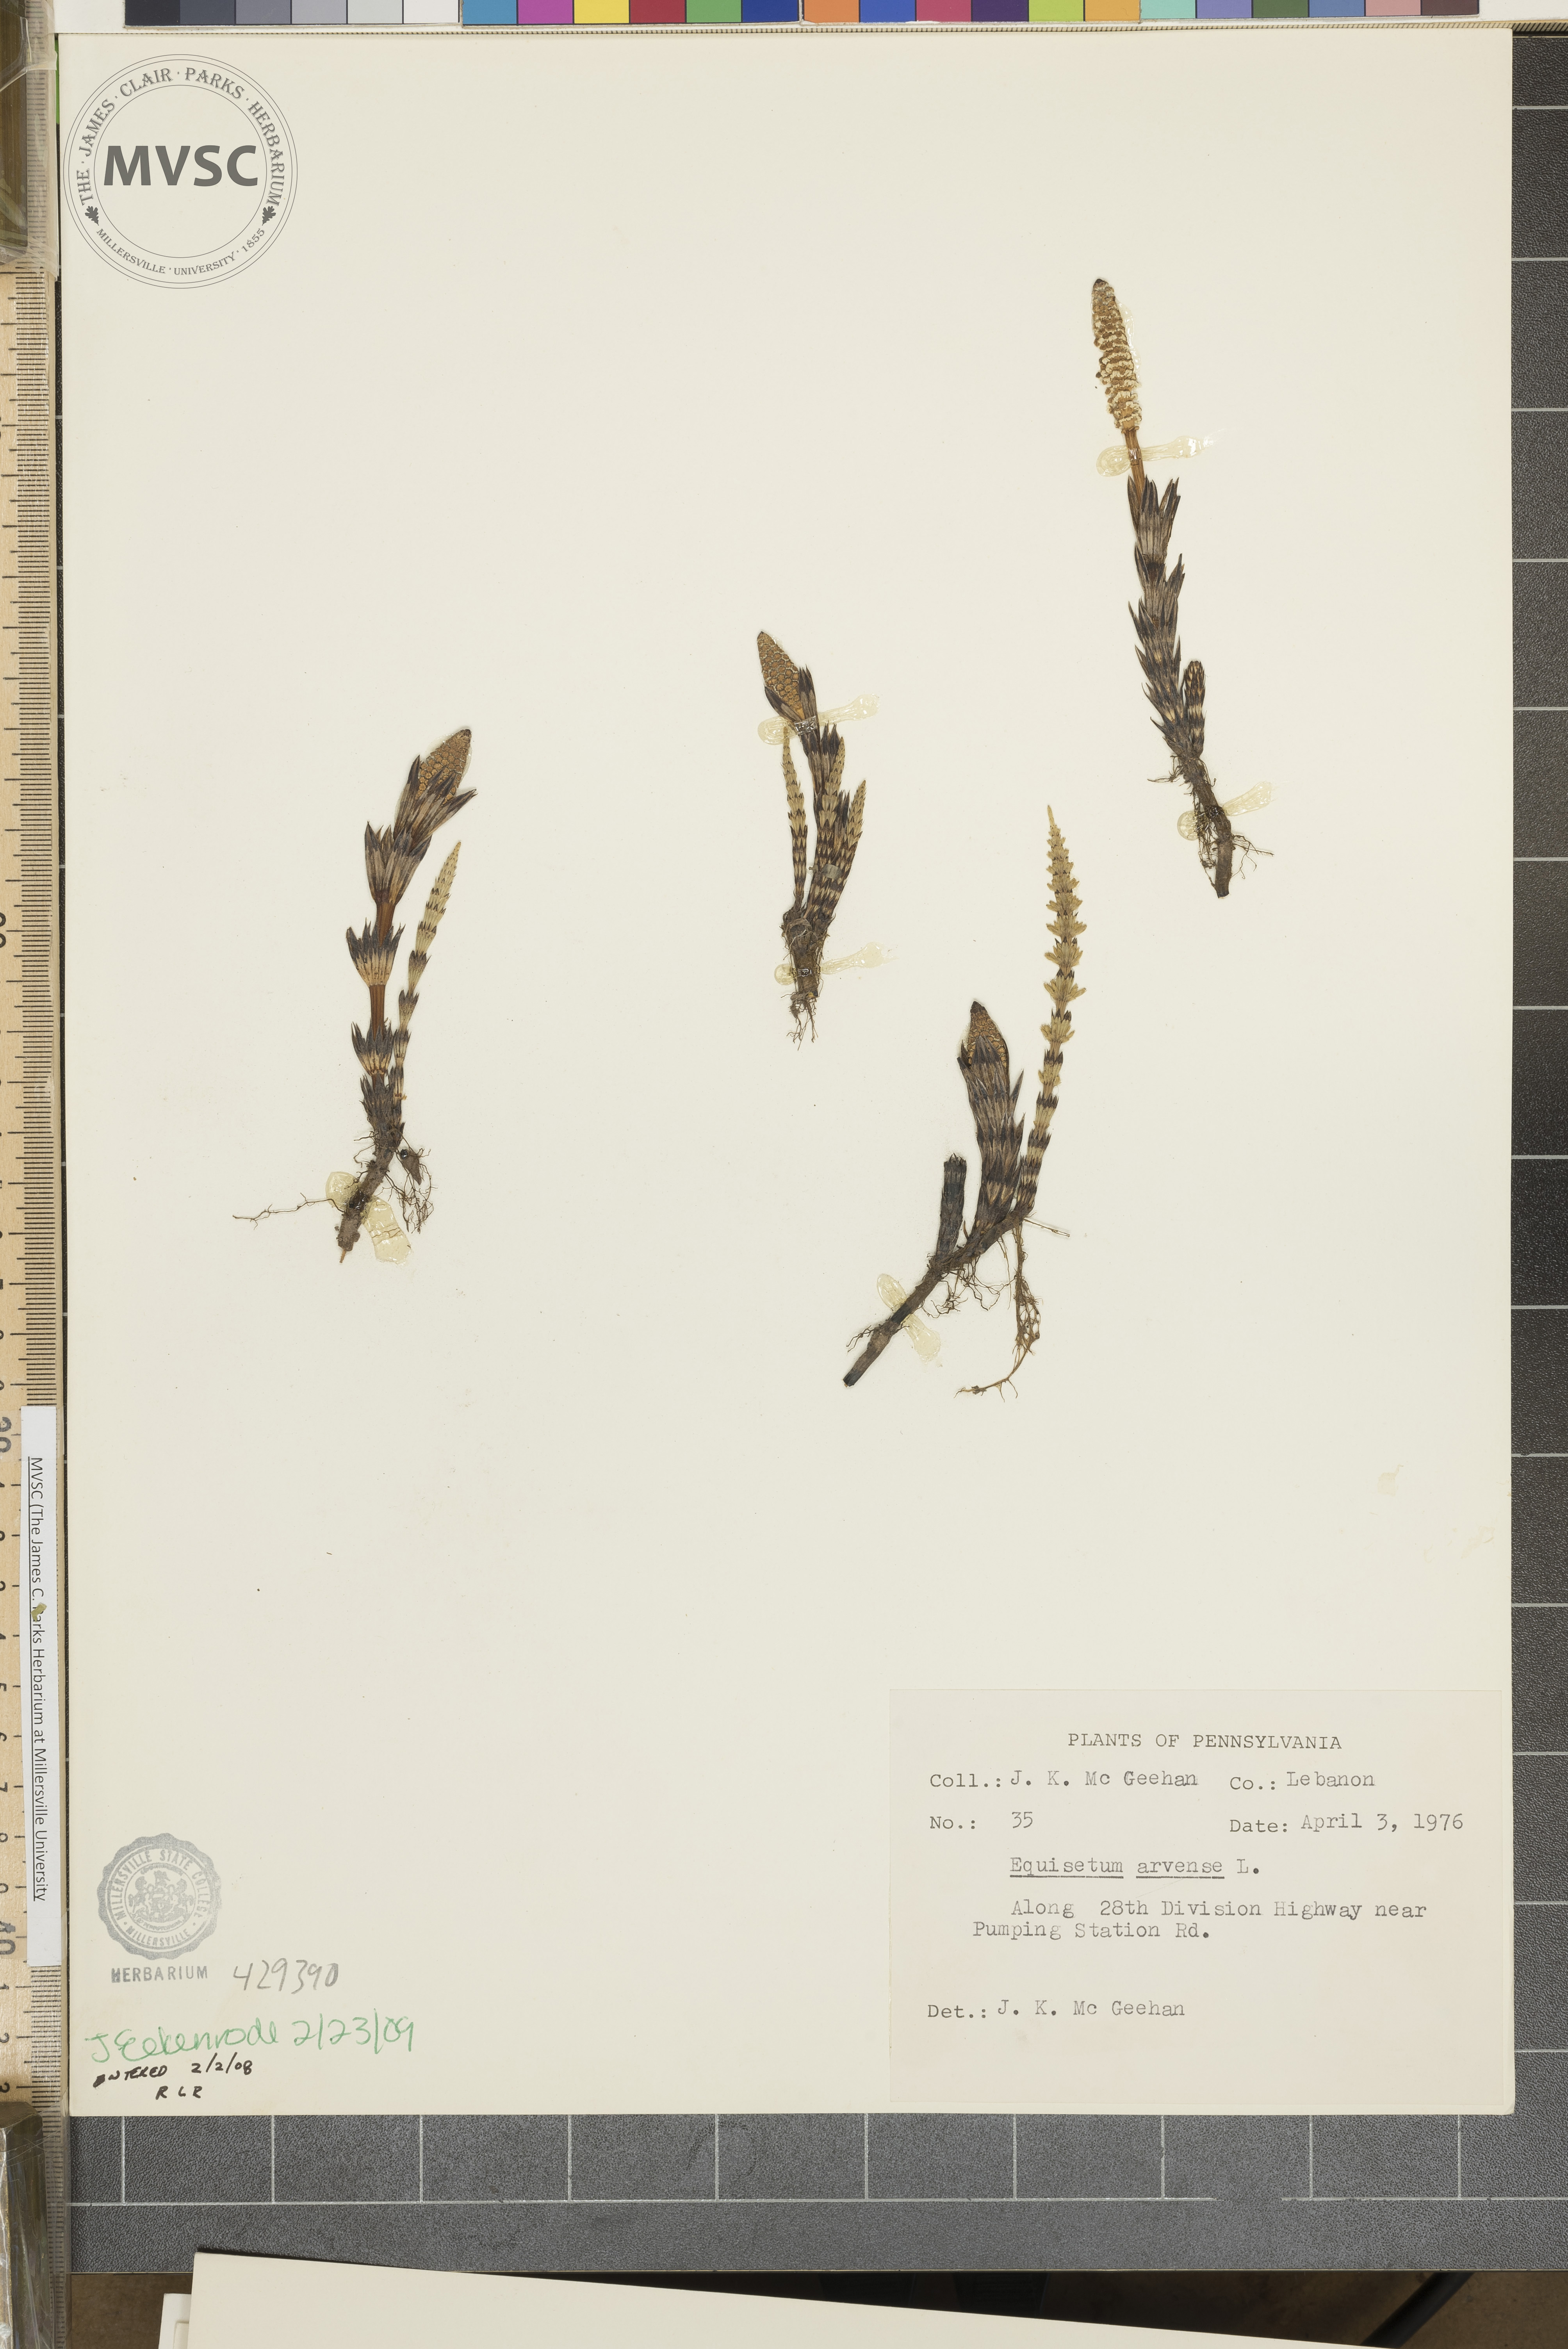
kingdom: Plantae
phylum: Tracheophyta
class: Polypodiopsida
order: Equisetales
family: Equisetaceae
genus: Equisetum
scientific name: Equisetum arvense
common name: Field horsetail
